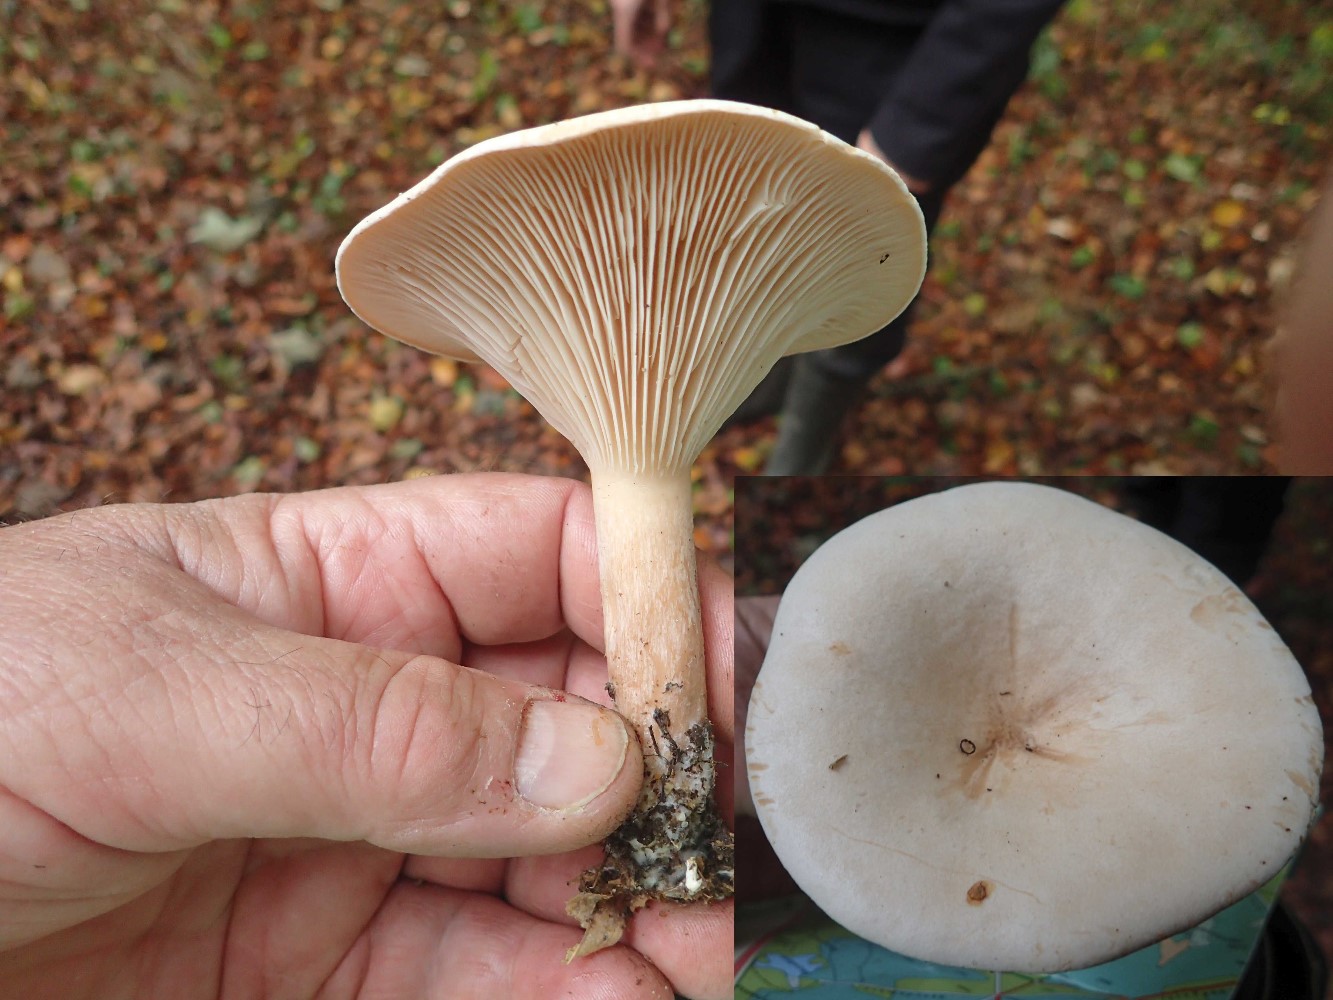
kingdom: Fungi
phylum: Basidiomycota
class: Agaricomycetes
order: Agaricales
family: Tricholomataceae
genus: Infundibulicybe
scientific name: Infundibulicybe geotropa
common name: stor tragthat
